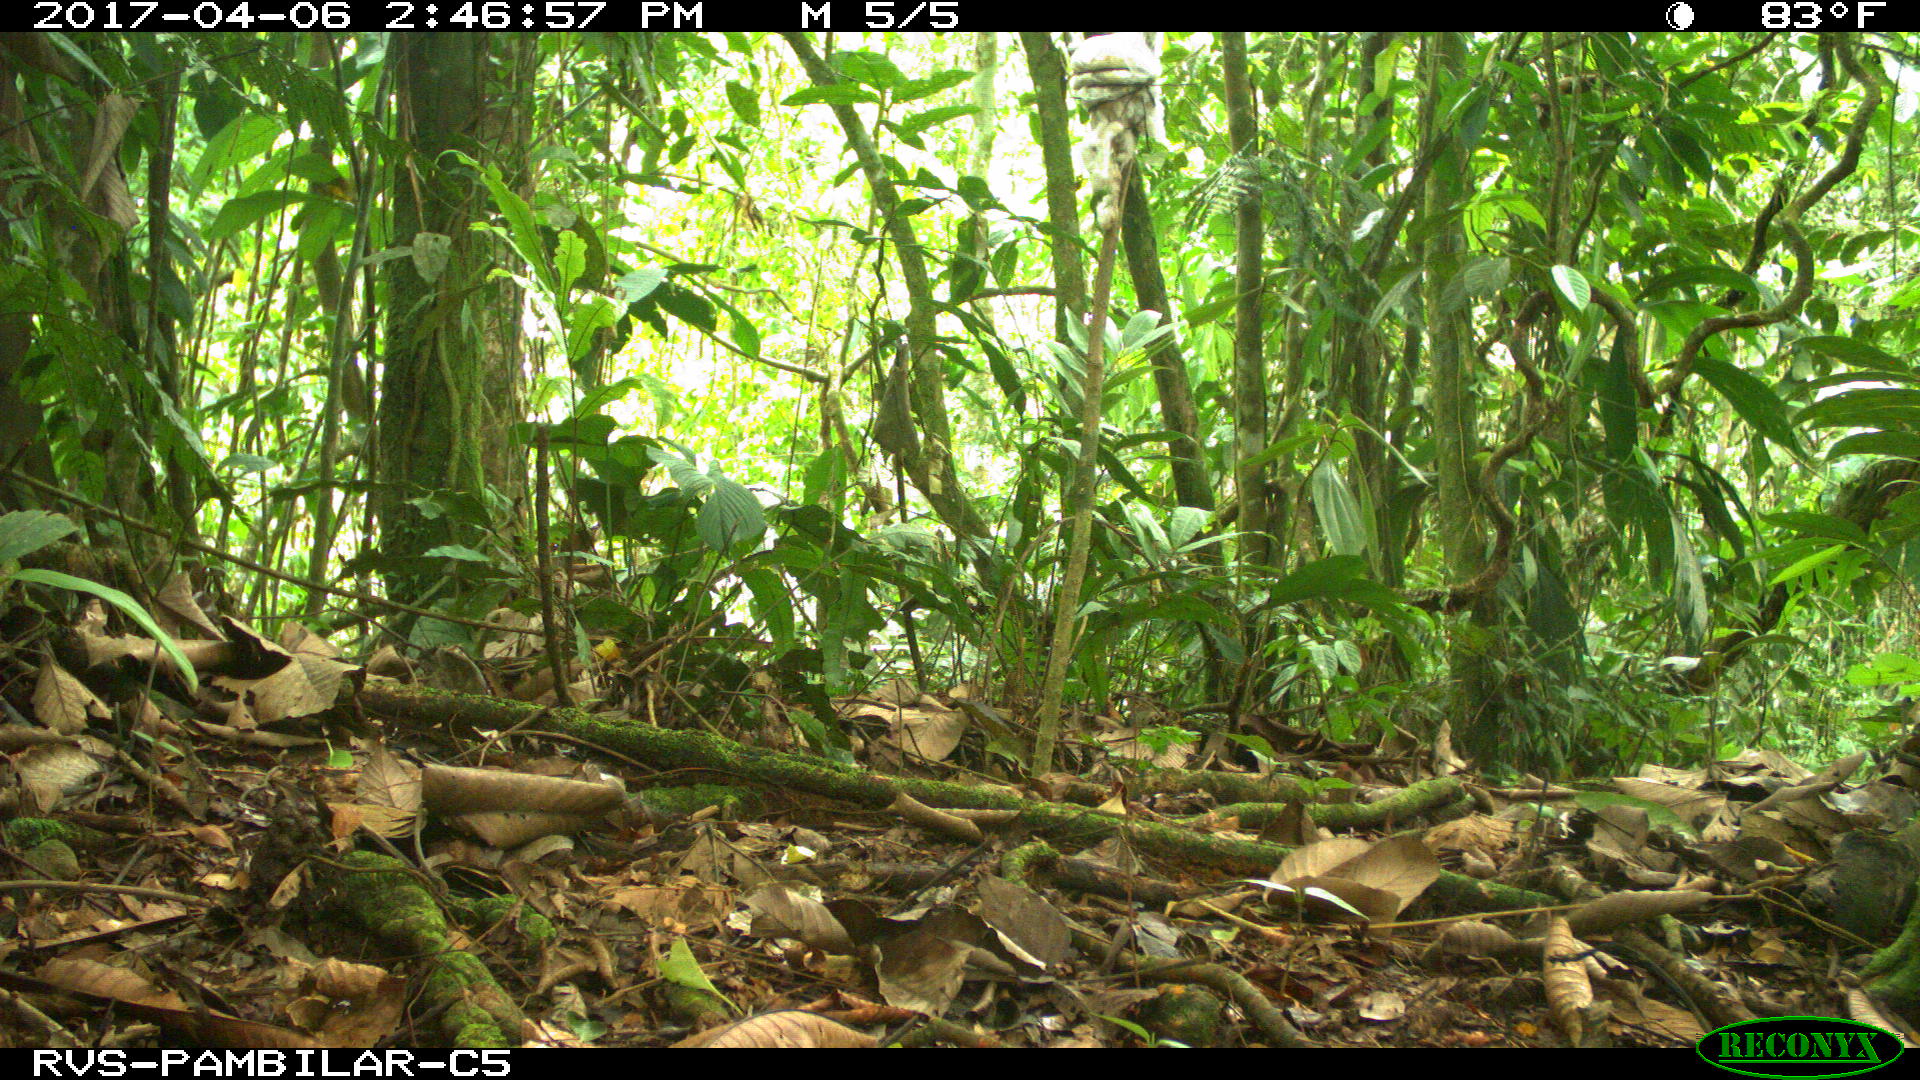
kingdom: Animalia
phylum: Chordata
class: Mammalia
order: Artiodactyla
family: Tayassuidae
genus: Tayassu
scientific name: Tayassu pecari
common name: White-lipped peccary
